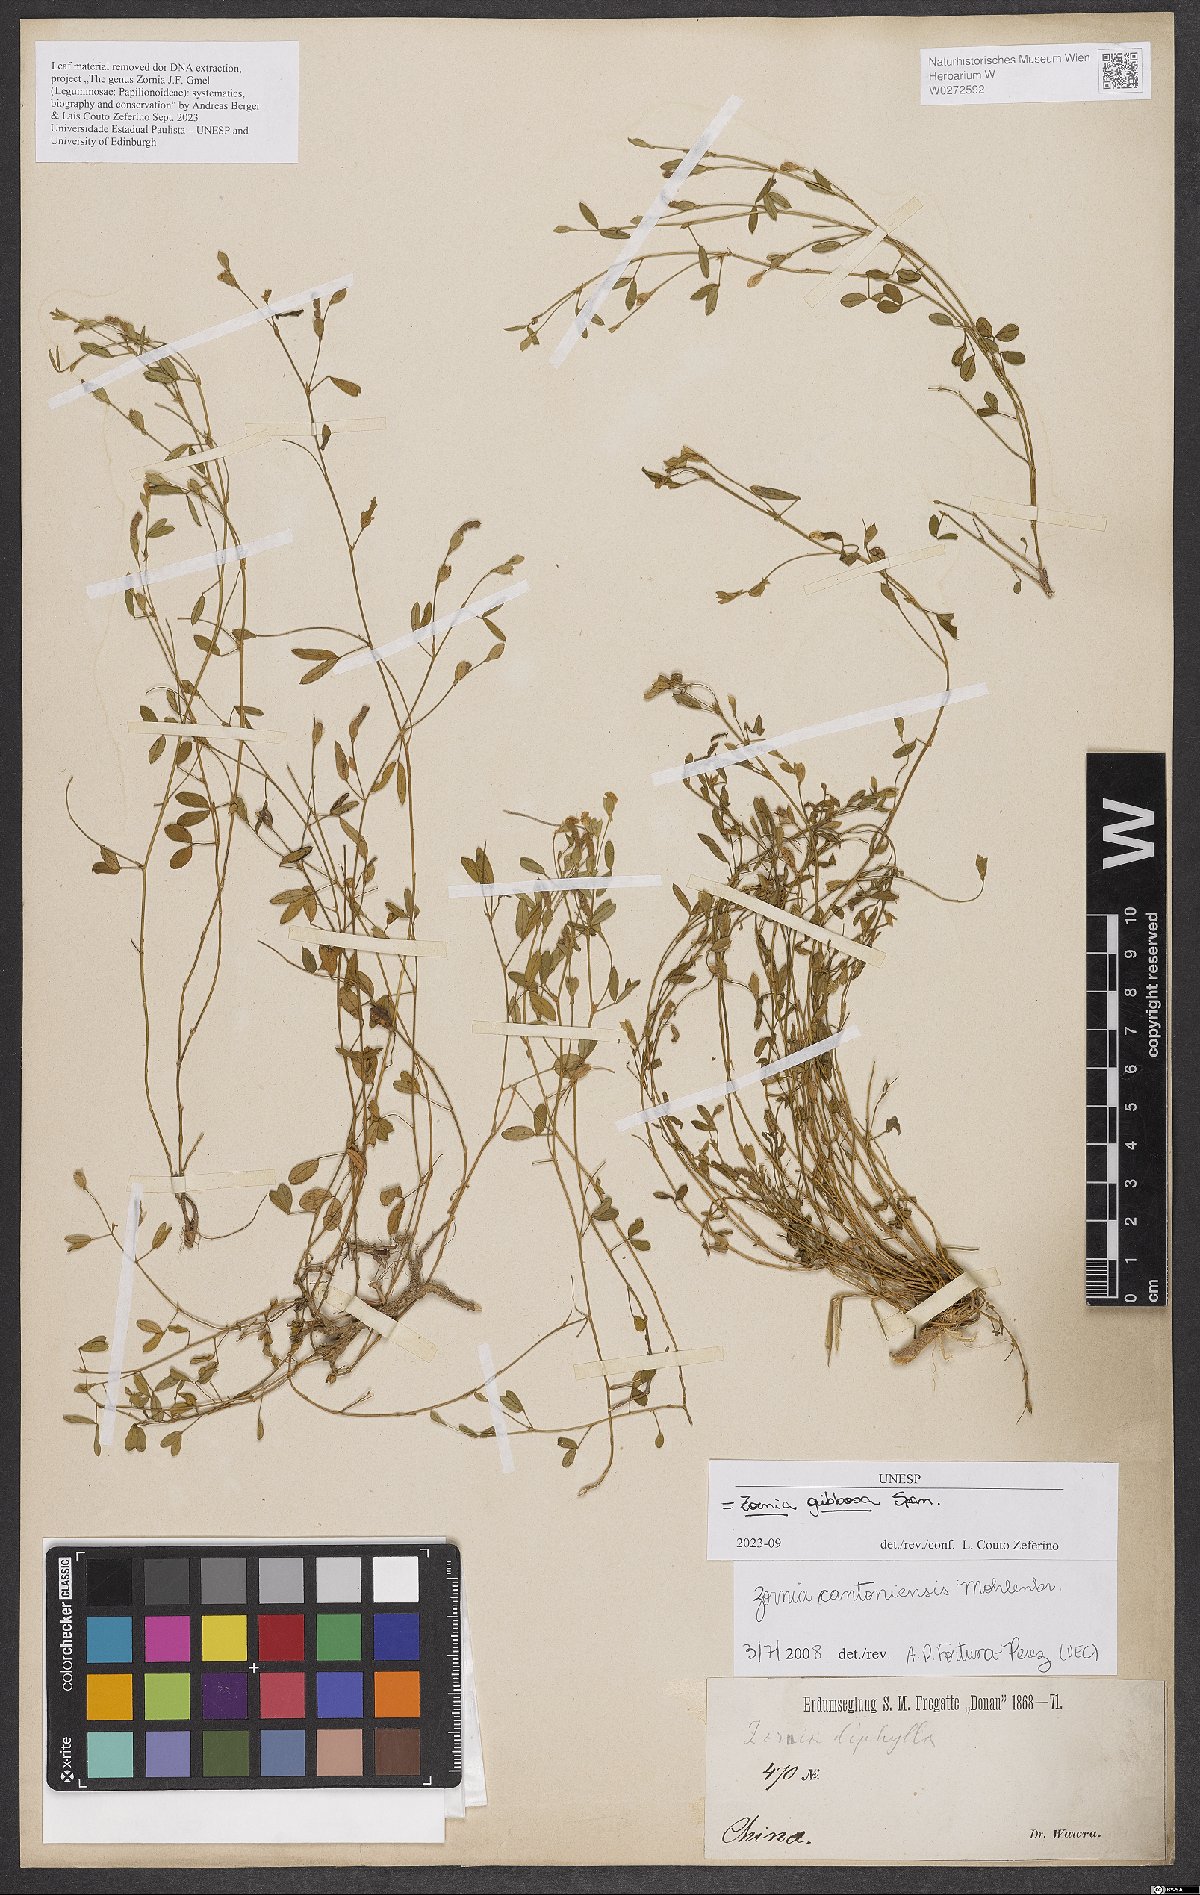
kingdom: Plantae
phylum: Tracheophyta
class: Magnoliopsida
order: Fabales
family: Fabaceae
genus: Zornia
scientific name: Zornia gibbosa
